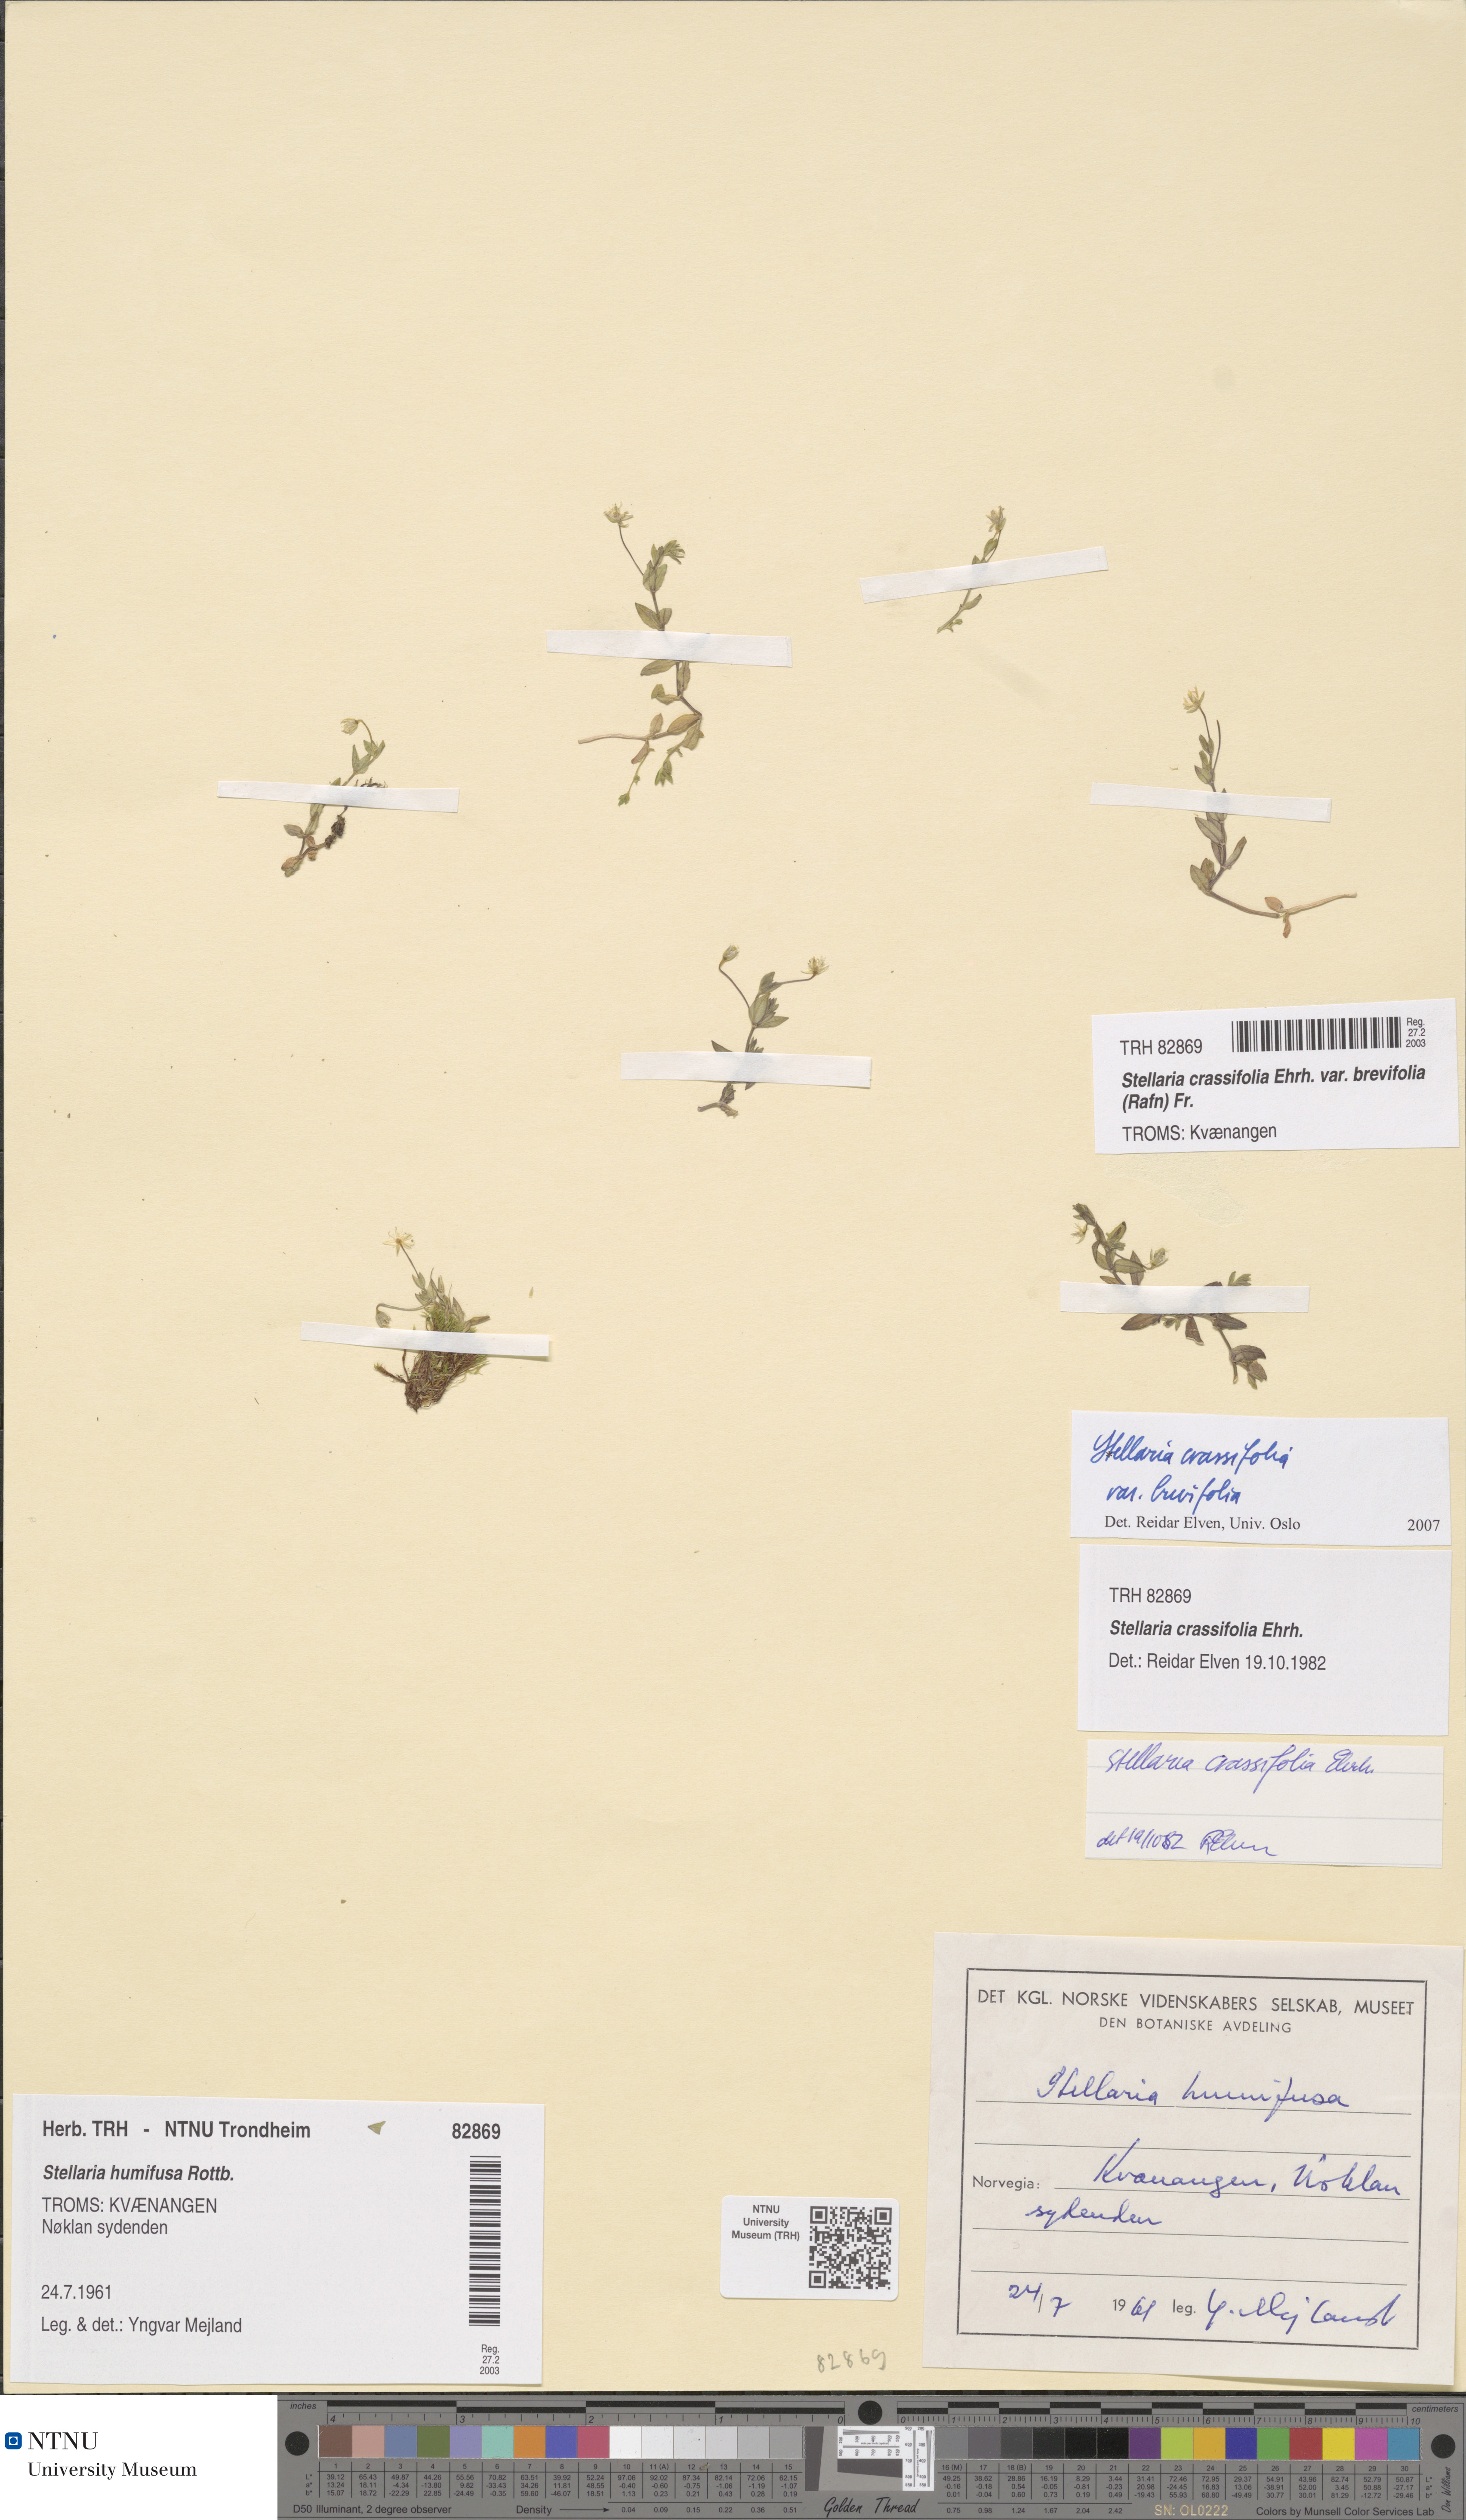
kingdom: Plantae
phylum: Tracheophyta
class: Magnoliopsida
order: Caryophyllales
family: Caryophyllaceae
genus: Stellaria
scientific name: Stellaria crassifolia
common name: Fleshy starwort
